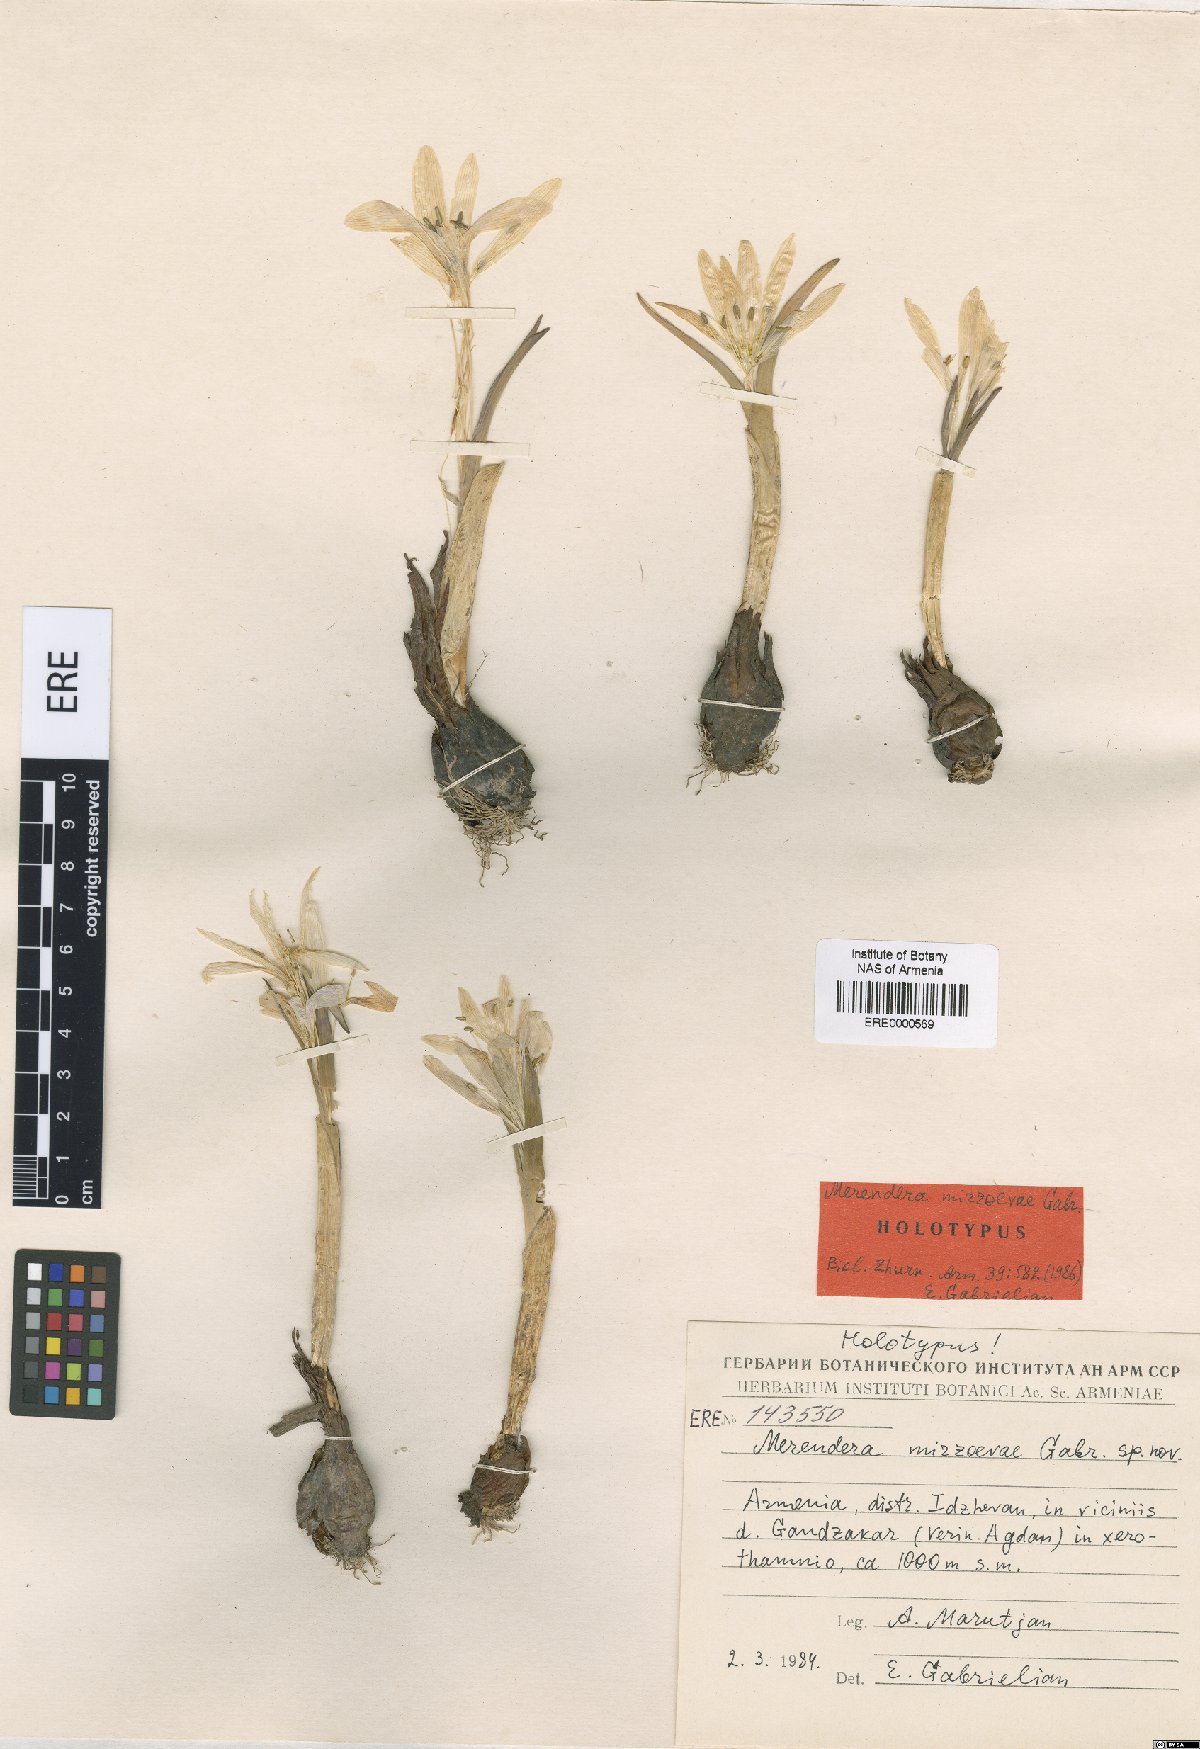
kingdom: Plantae
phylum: Tracheophyta
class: Liliopsida
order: Liliales
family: Colchicaceae
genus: Colchicum
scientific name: Colchicum trigynum
